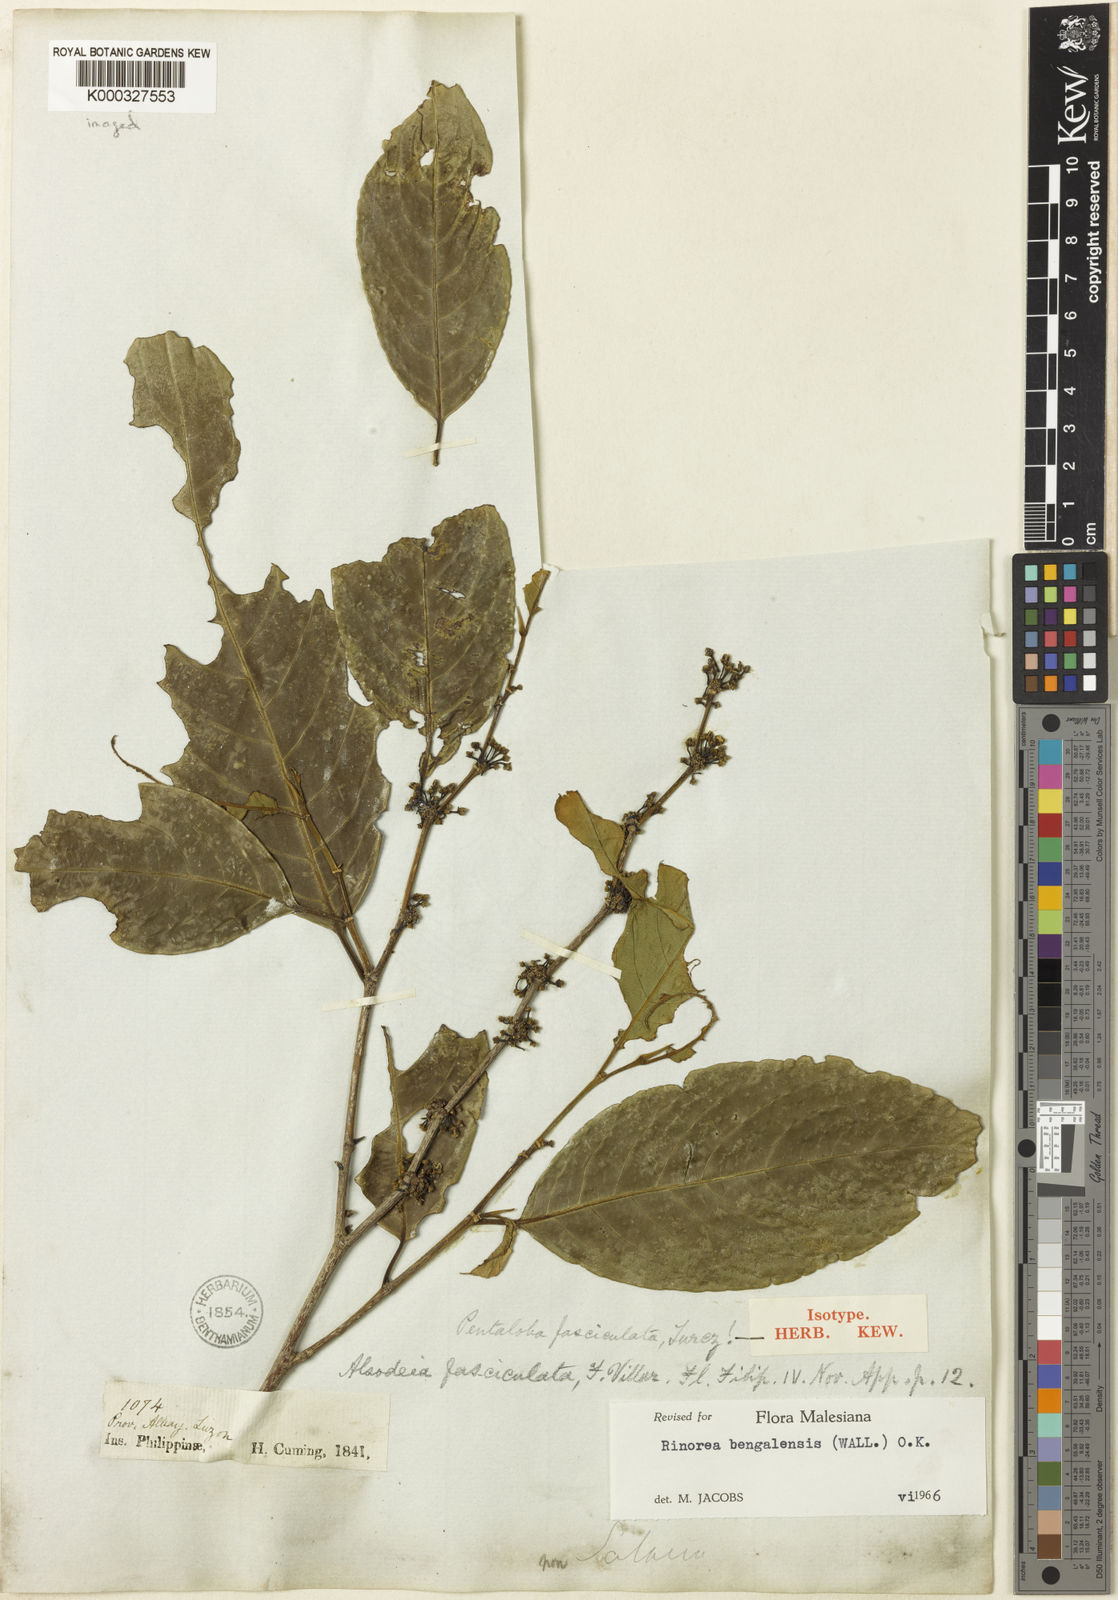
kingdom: Plantae
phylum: Tracheophyta
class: Magnoliopsida
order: Malpighiales
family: Violaceae
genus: Rinorea
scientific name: Rinorea bengalensis
